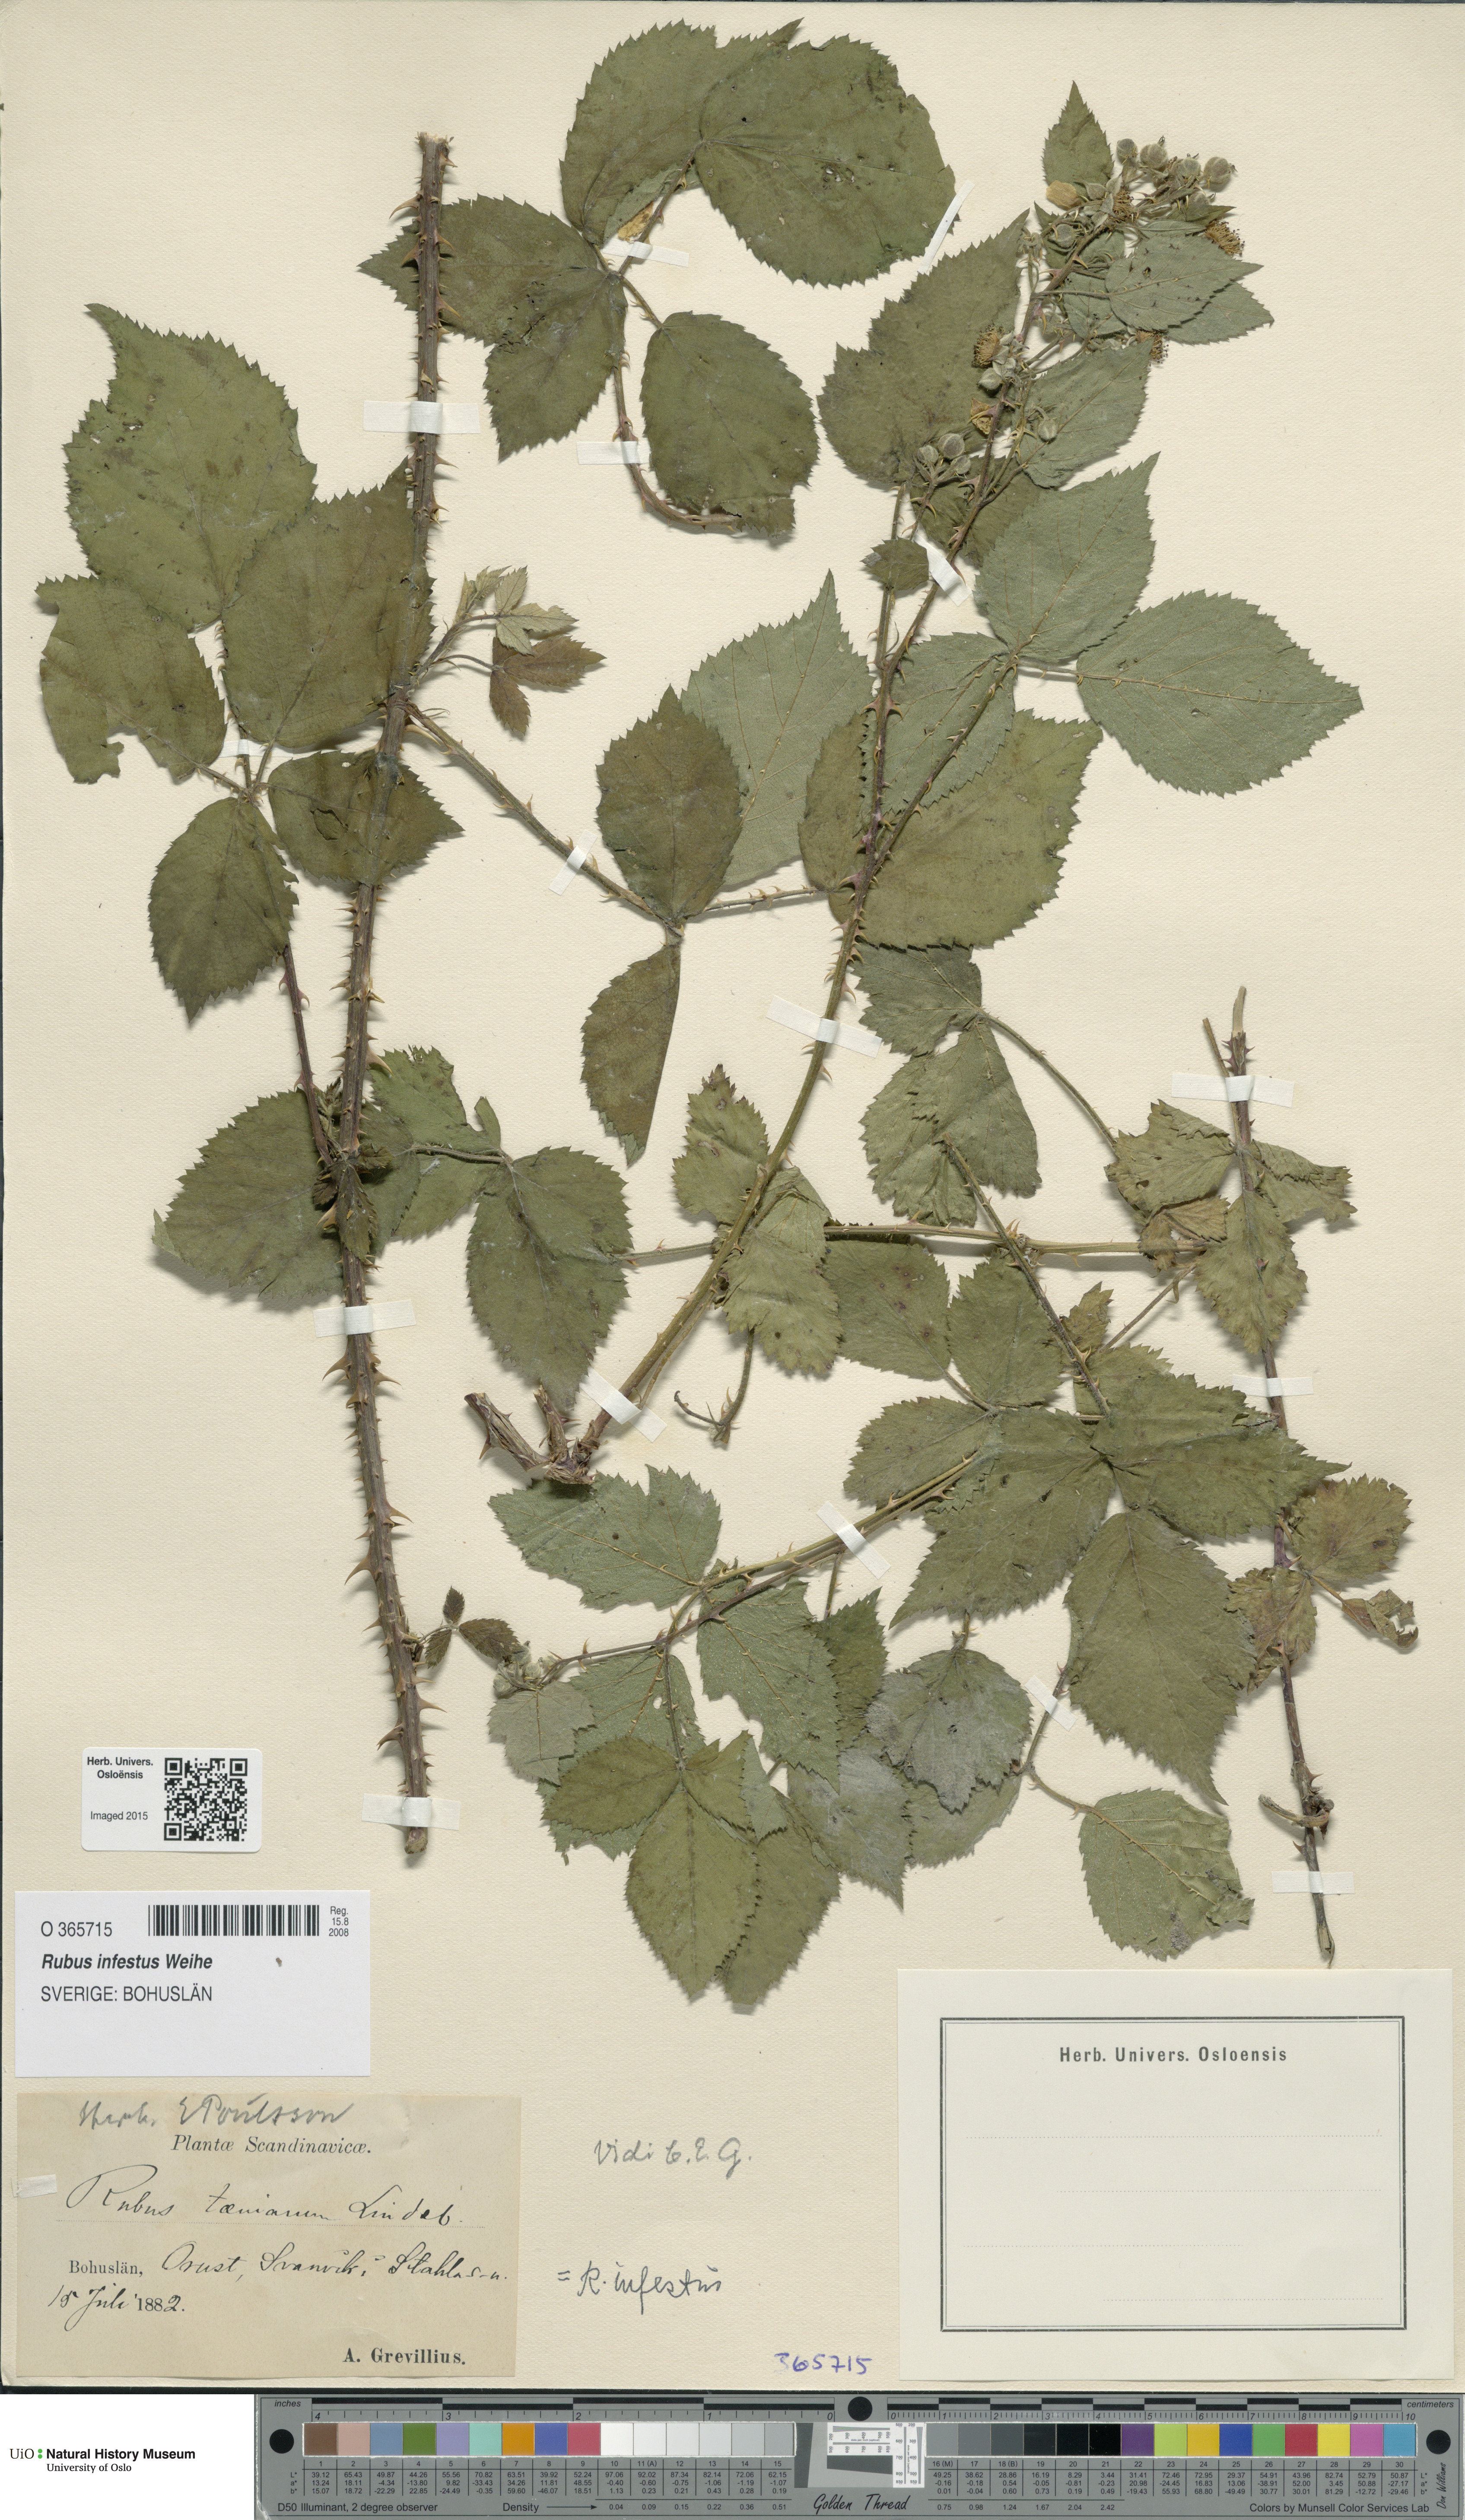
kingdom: Plantae
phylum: Tracheophyta
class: Magnoliopsida
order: Rosales
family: Rosaceae
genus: Rubus
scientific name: Rubus infestus
